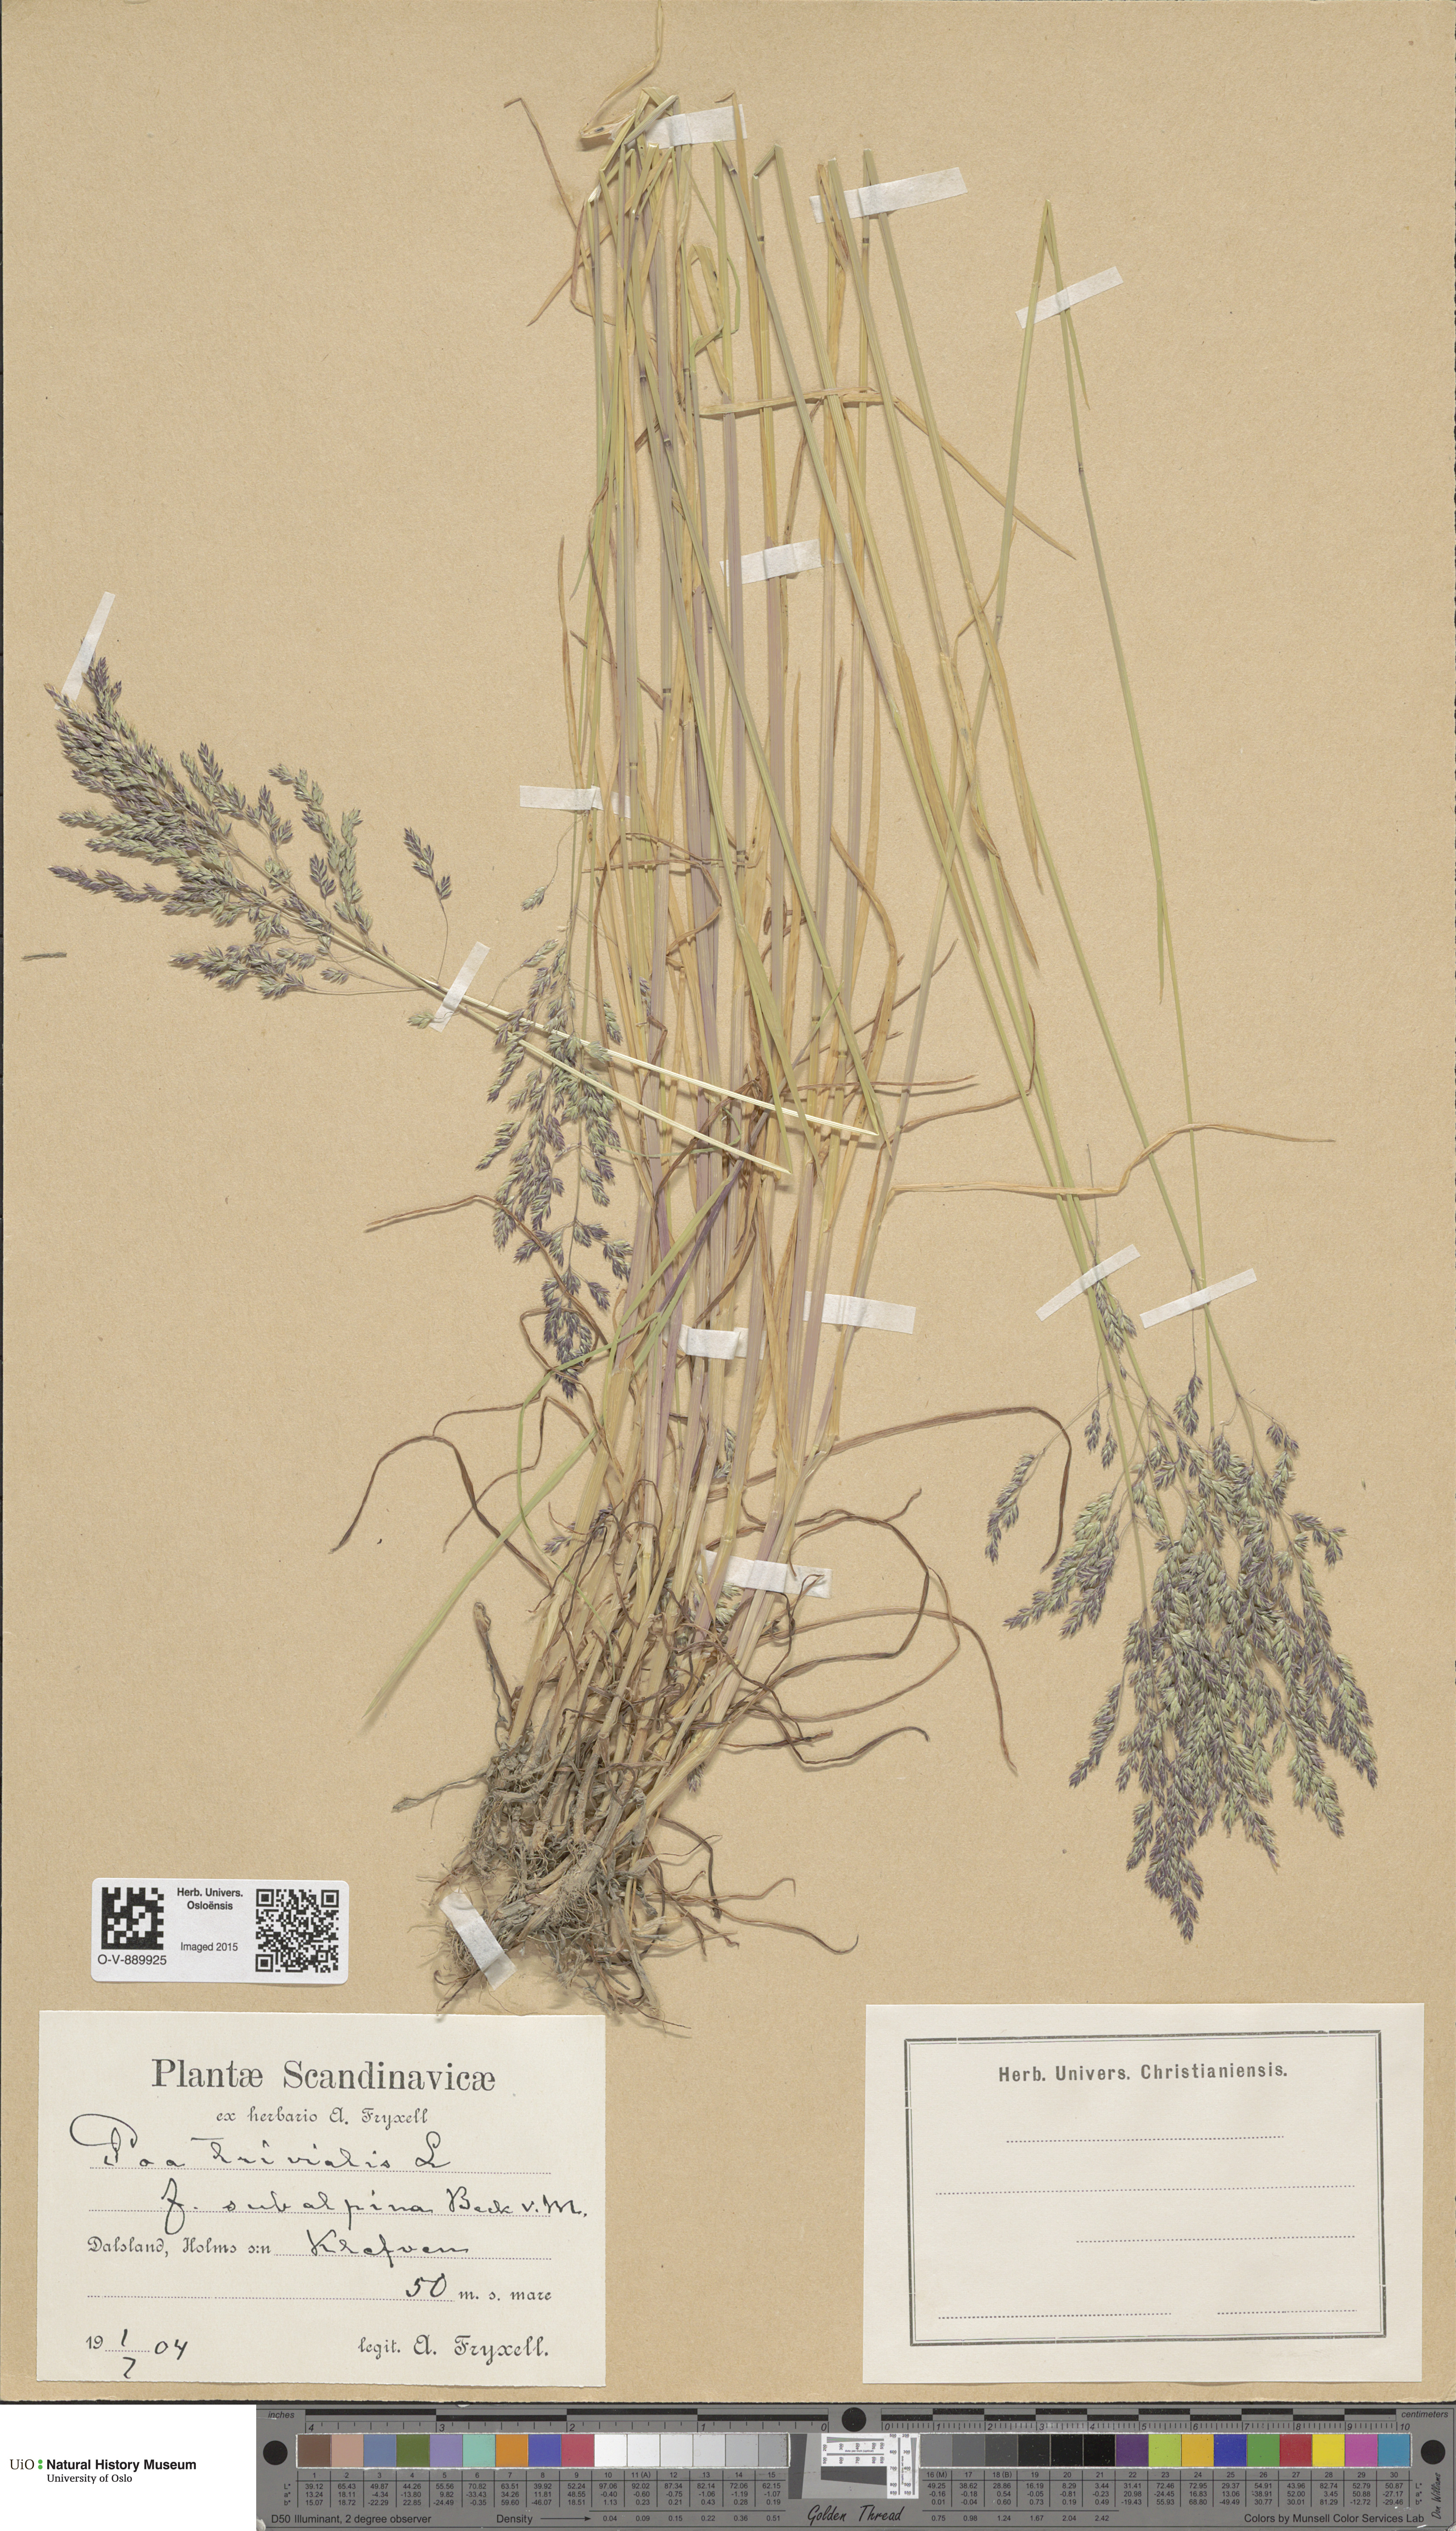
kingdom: Plantae
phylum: Tracheophyta
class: Liliopsida
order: Poales
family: Poaceae
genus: Poa
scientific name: Poa trivialis
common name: Rough bluegrass
